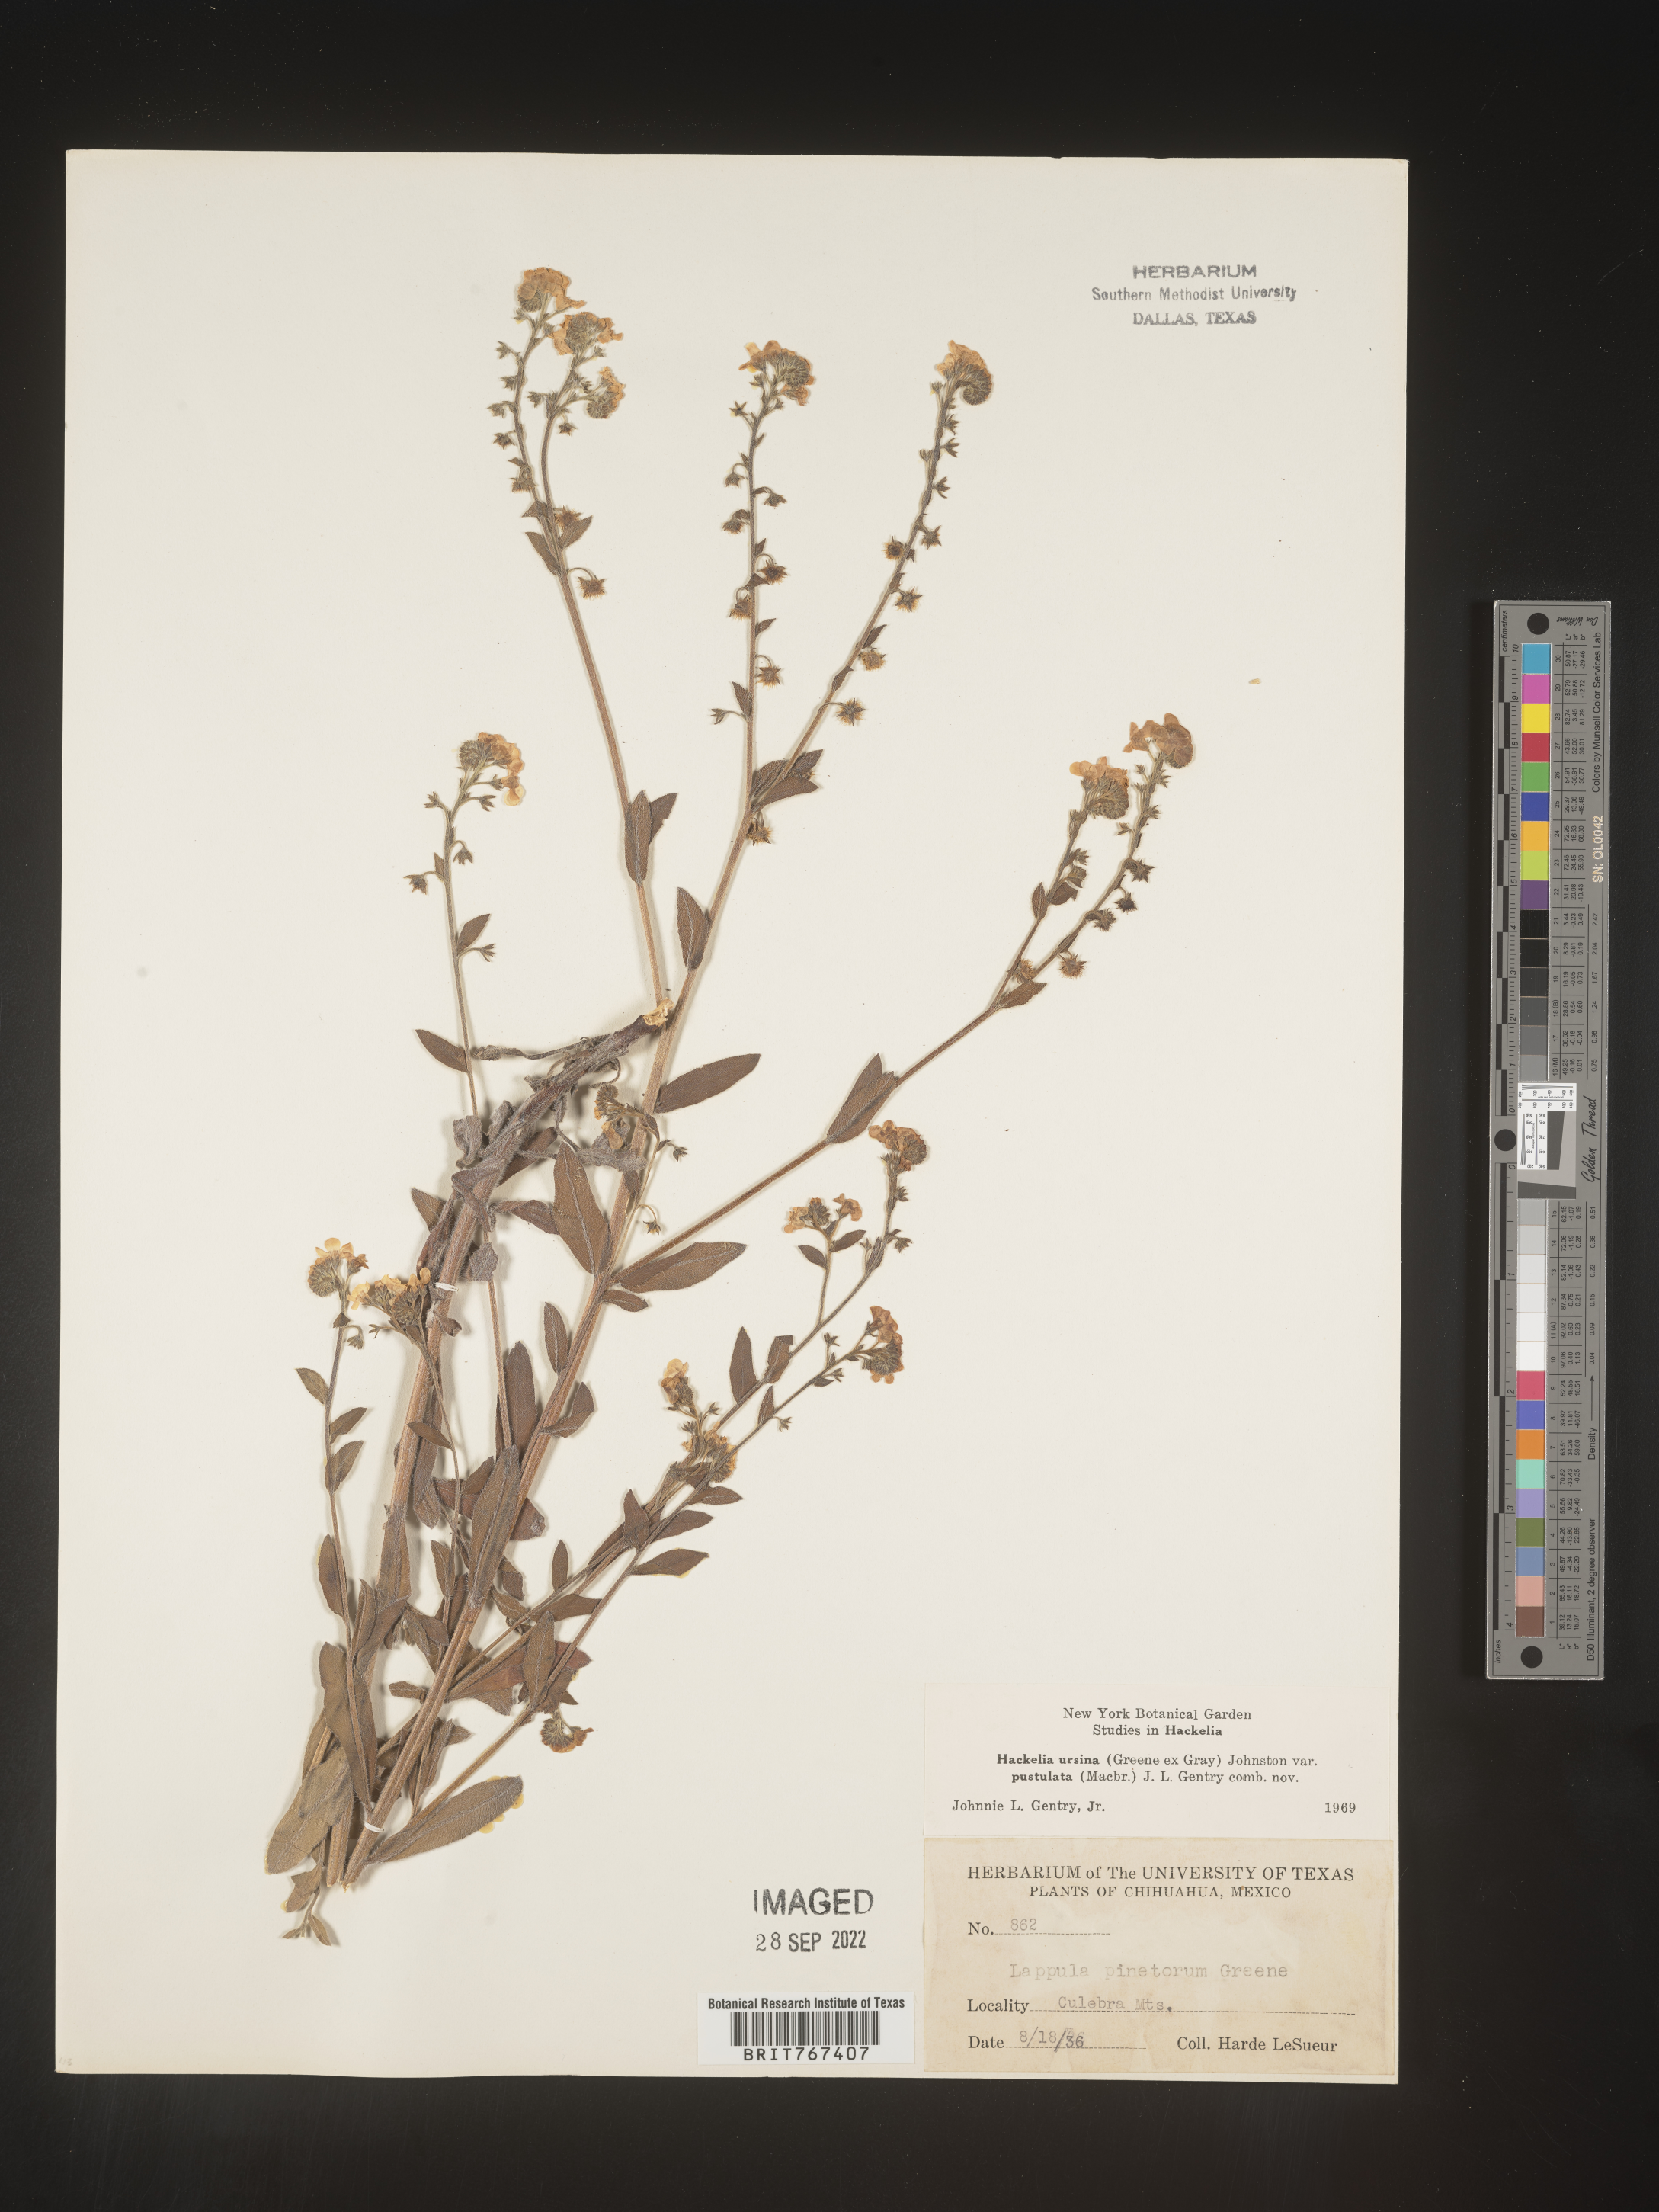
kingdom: Plantae
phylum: Tracheophyta
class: Magnoliopsida
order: Boraginales
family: Boraginaceae
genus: Hackelia
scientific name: Hackelia
